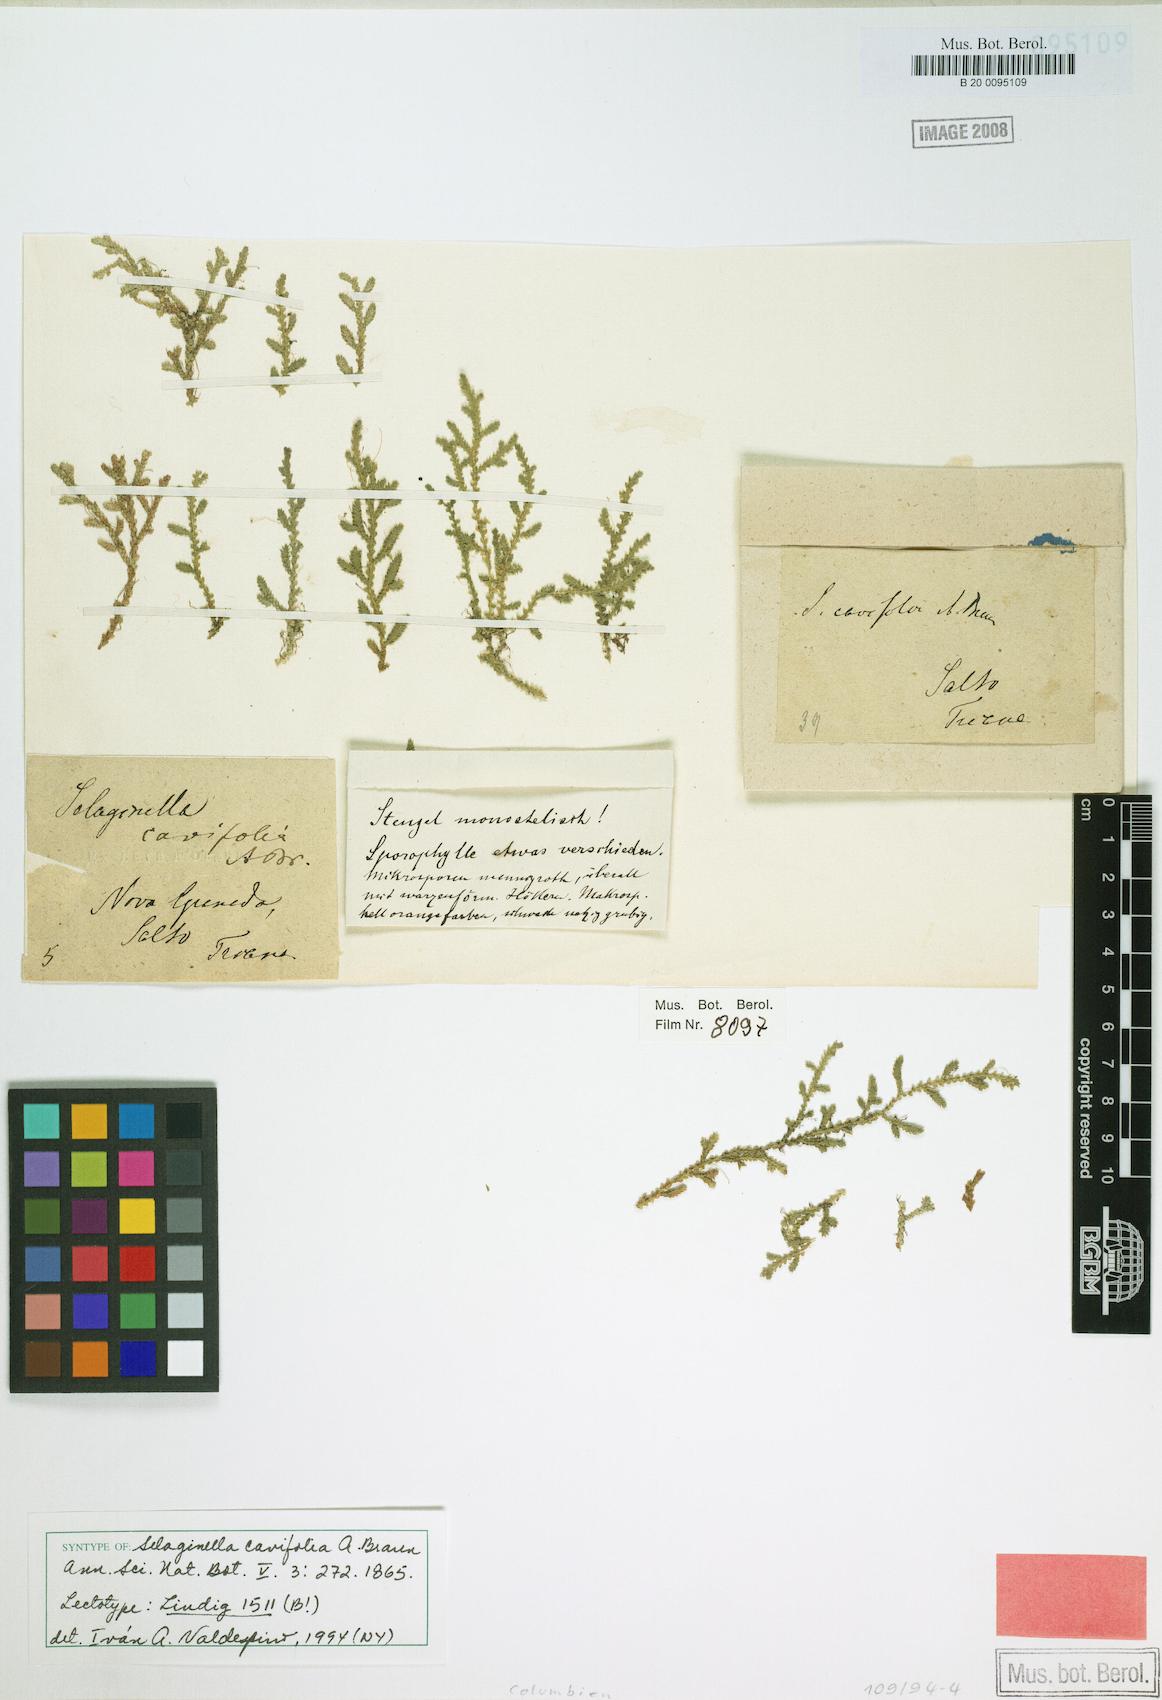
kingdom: Plantae
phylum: Tracheophyta
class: Lycopodiopsida
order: Selaginellales
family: Selaginellaceae
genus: Selaginella
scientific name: Selaginella cavifolia
